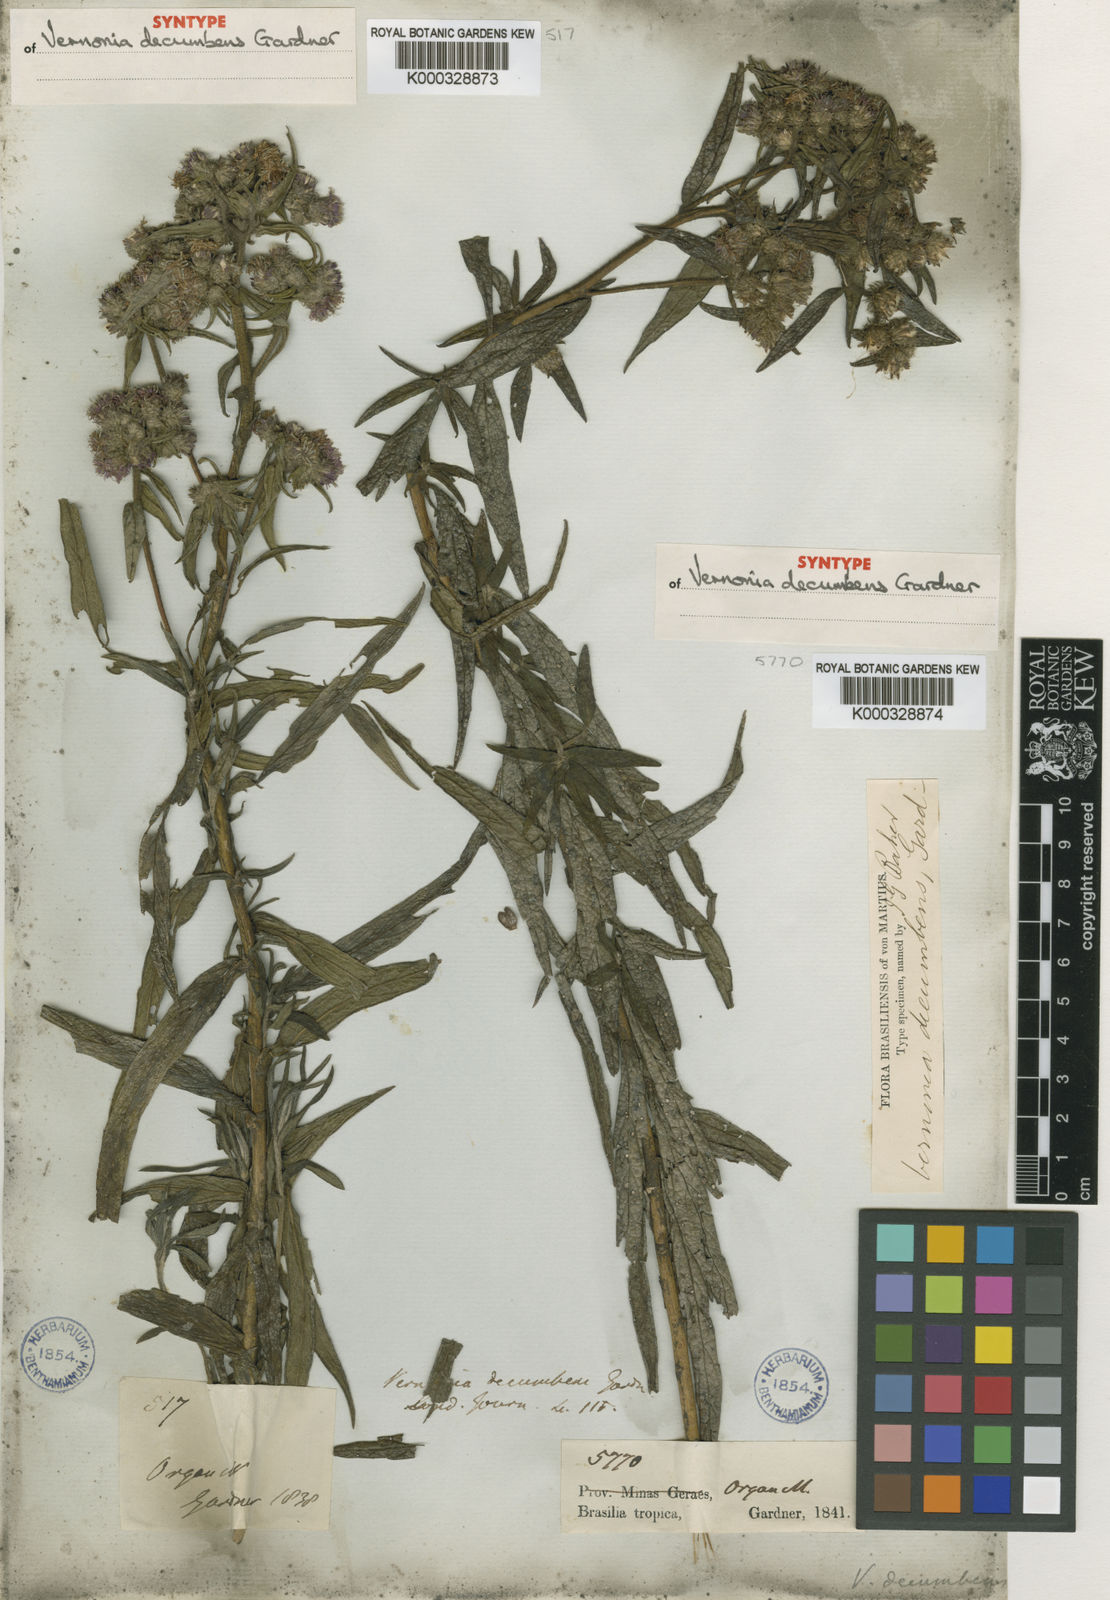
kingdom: Plantae
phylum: Tracheophyta
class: Magnoliopsida
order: Asterales
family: Asteraceae
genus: Lepidaploa
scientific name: Lepidaploa decumbens
